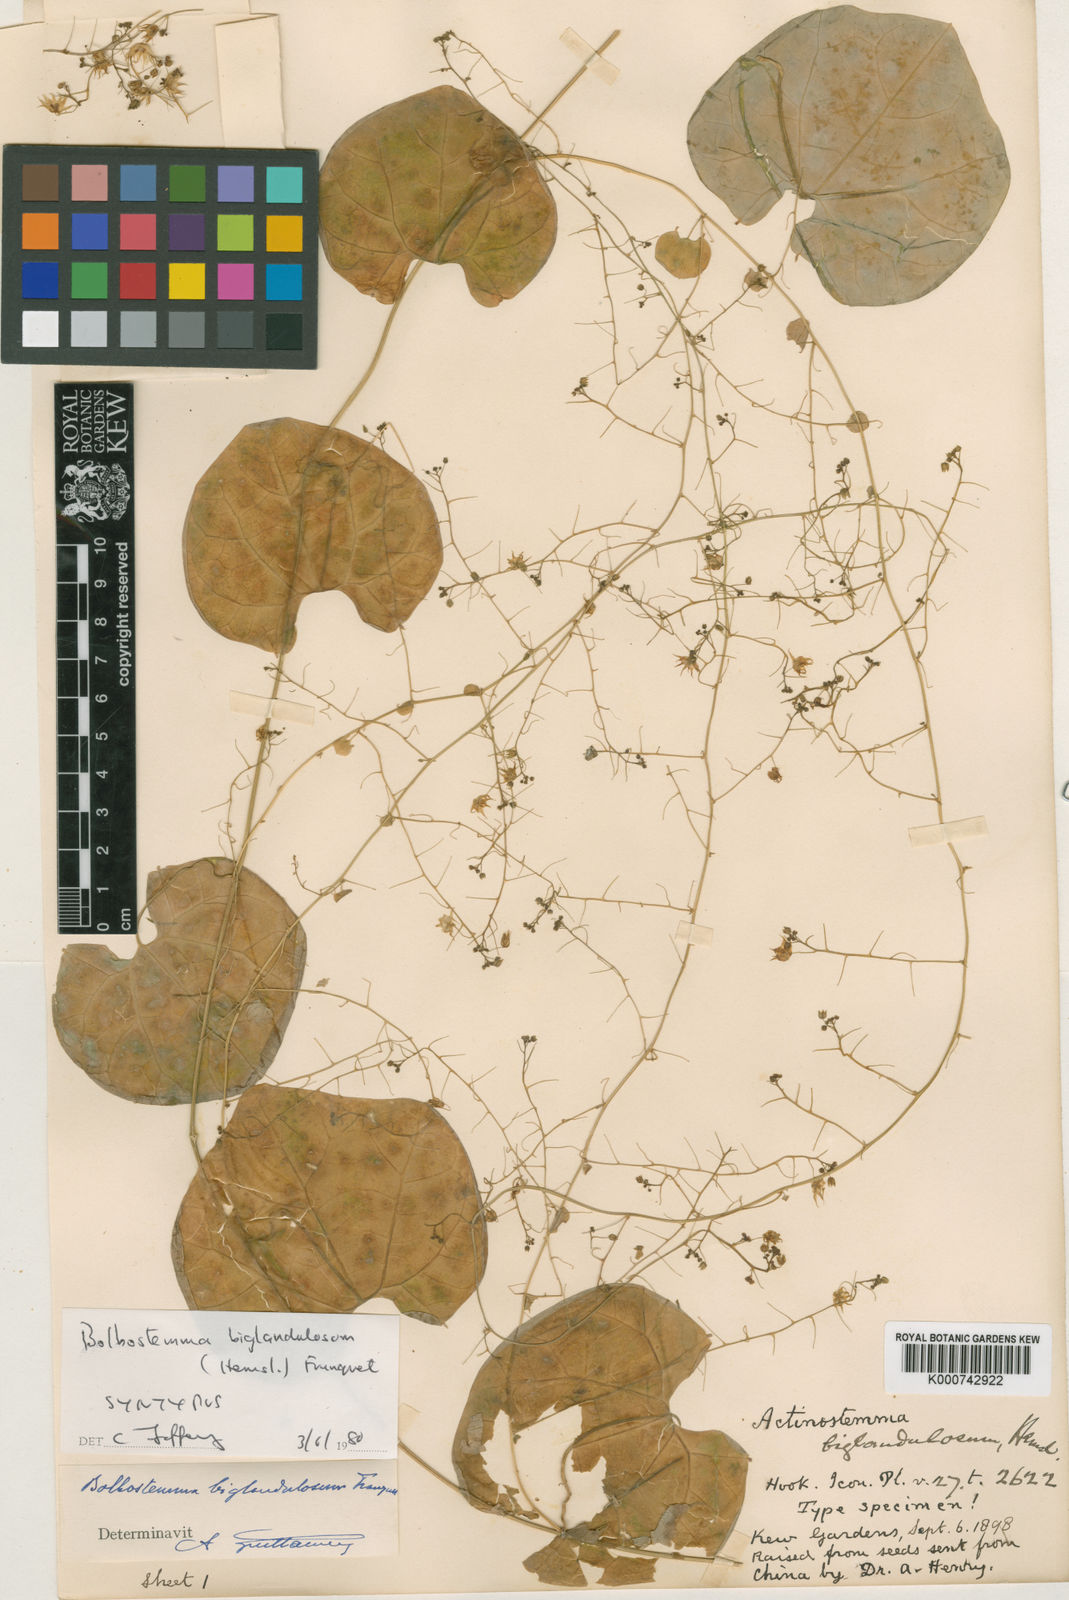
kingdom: Plantae
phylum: Tracheophyta
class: Magnoliopsida
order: Cucurbitales
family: Cucurbitaceae
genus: Actinostemma
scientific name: Actinostemma biglandulosum
